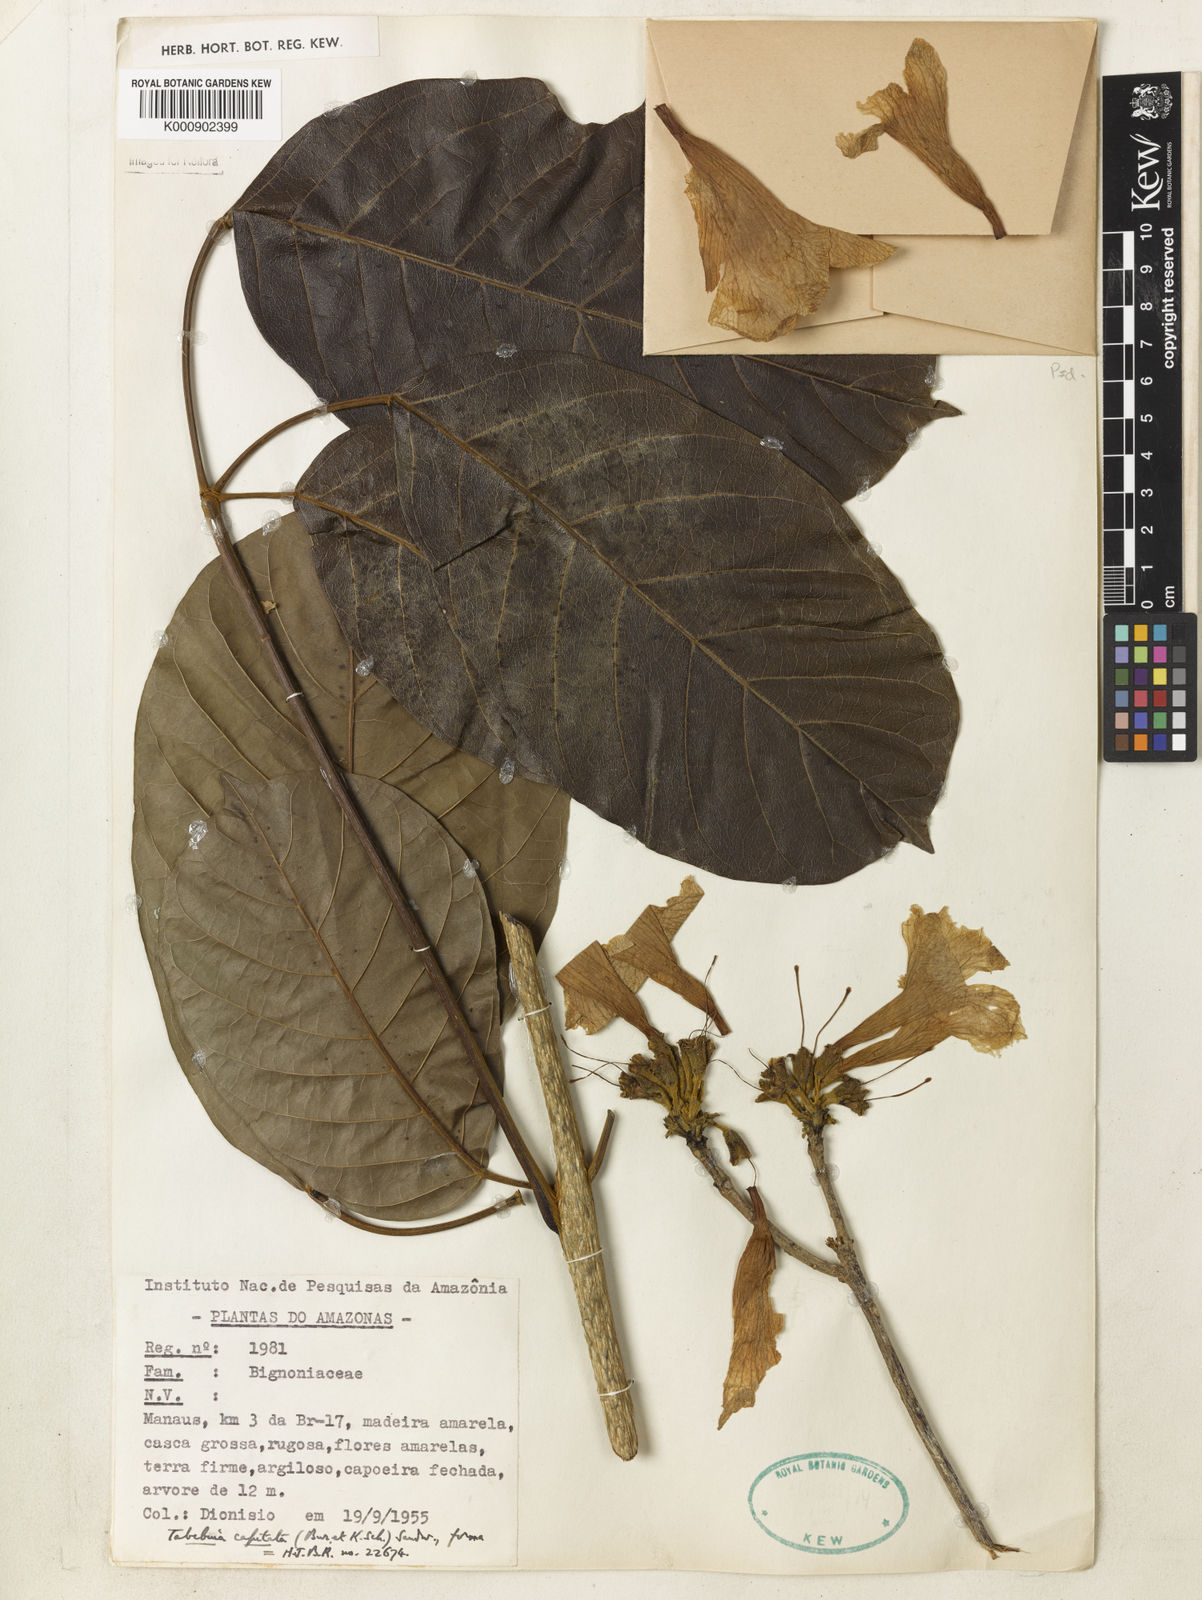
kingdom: Plantae
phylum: Tracheophyta
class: Magnoliopsida
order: Lamiales
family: Bignoniaceae
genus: Handroanthus
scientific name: Handroanthus capitatus
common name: Trumpet trees
